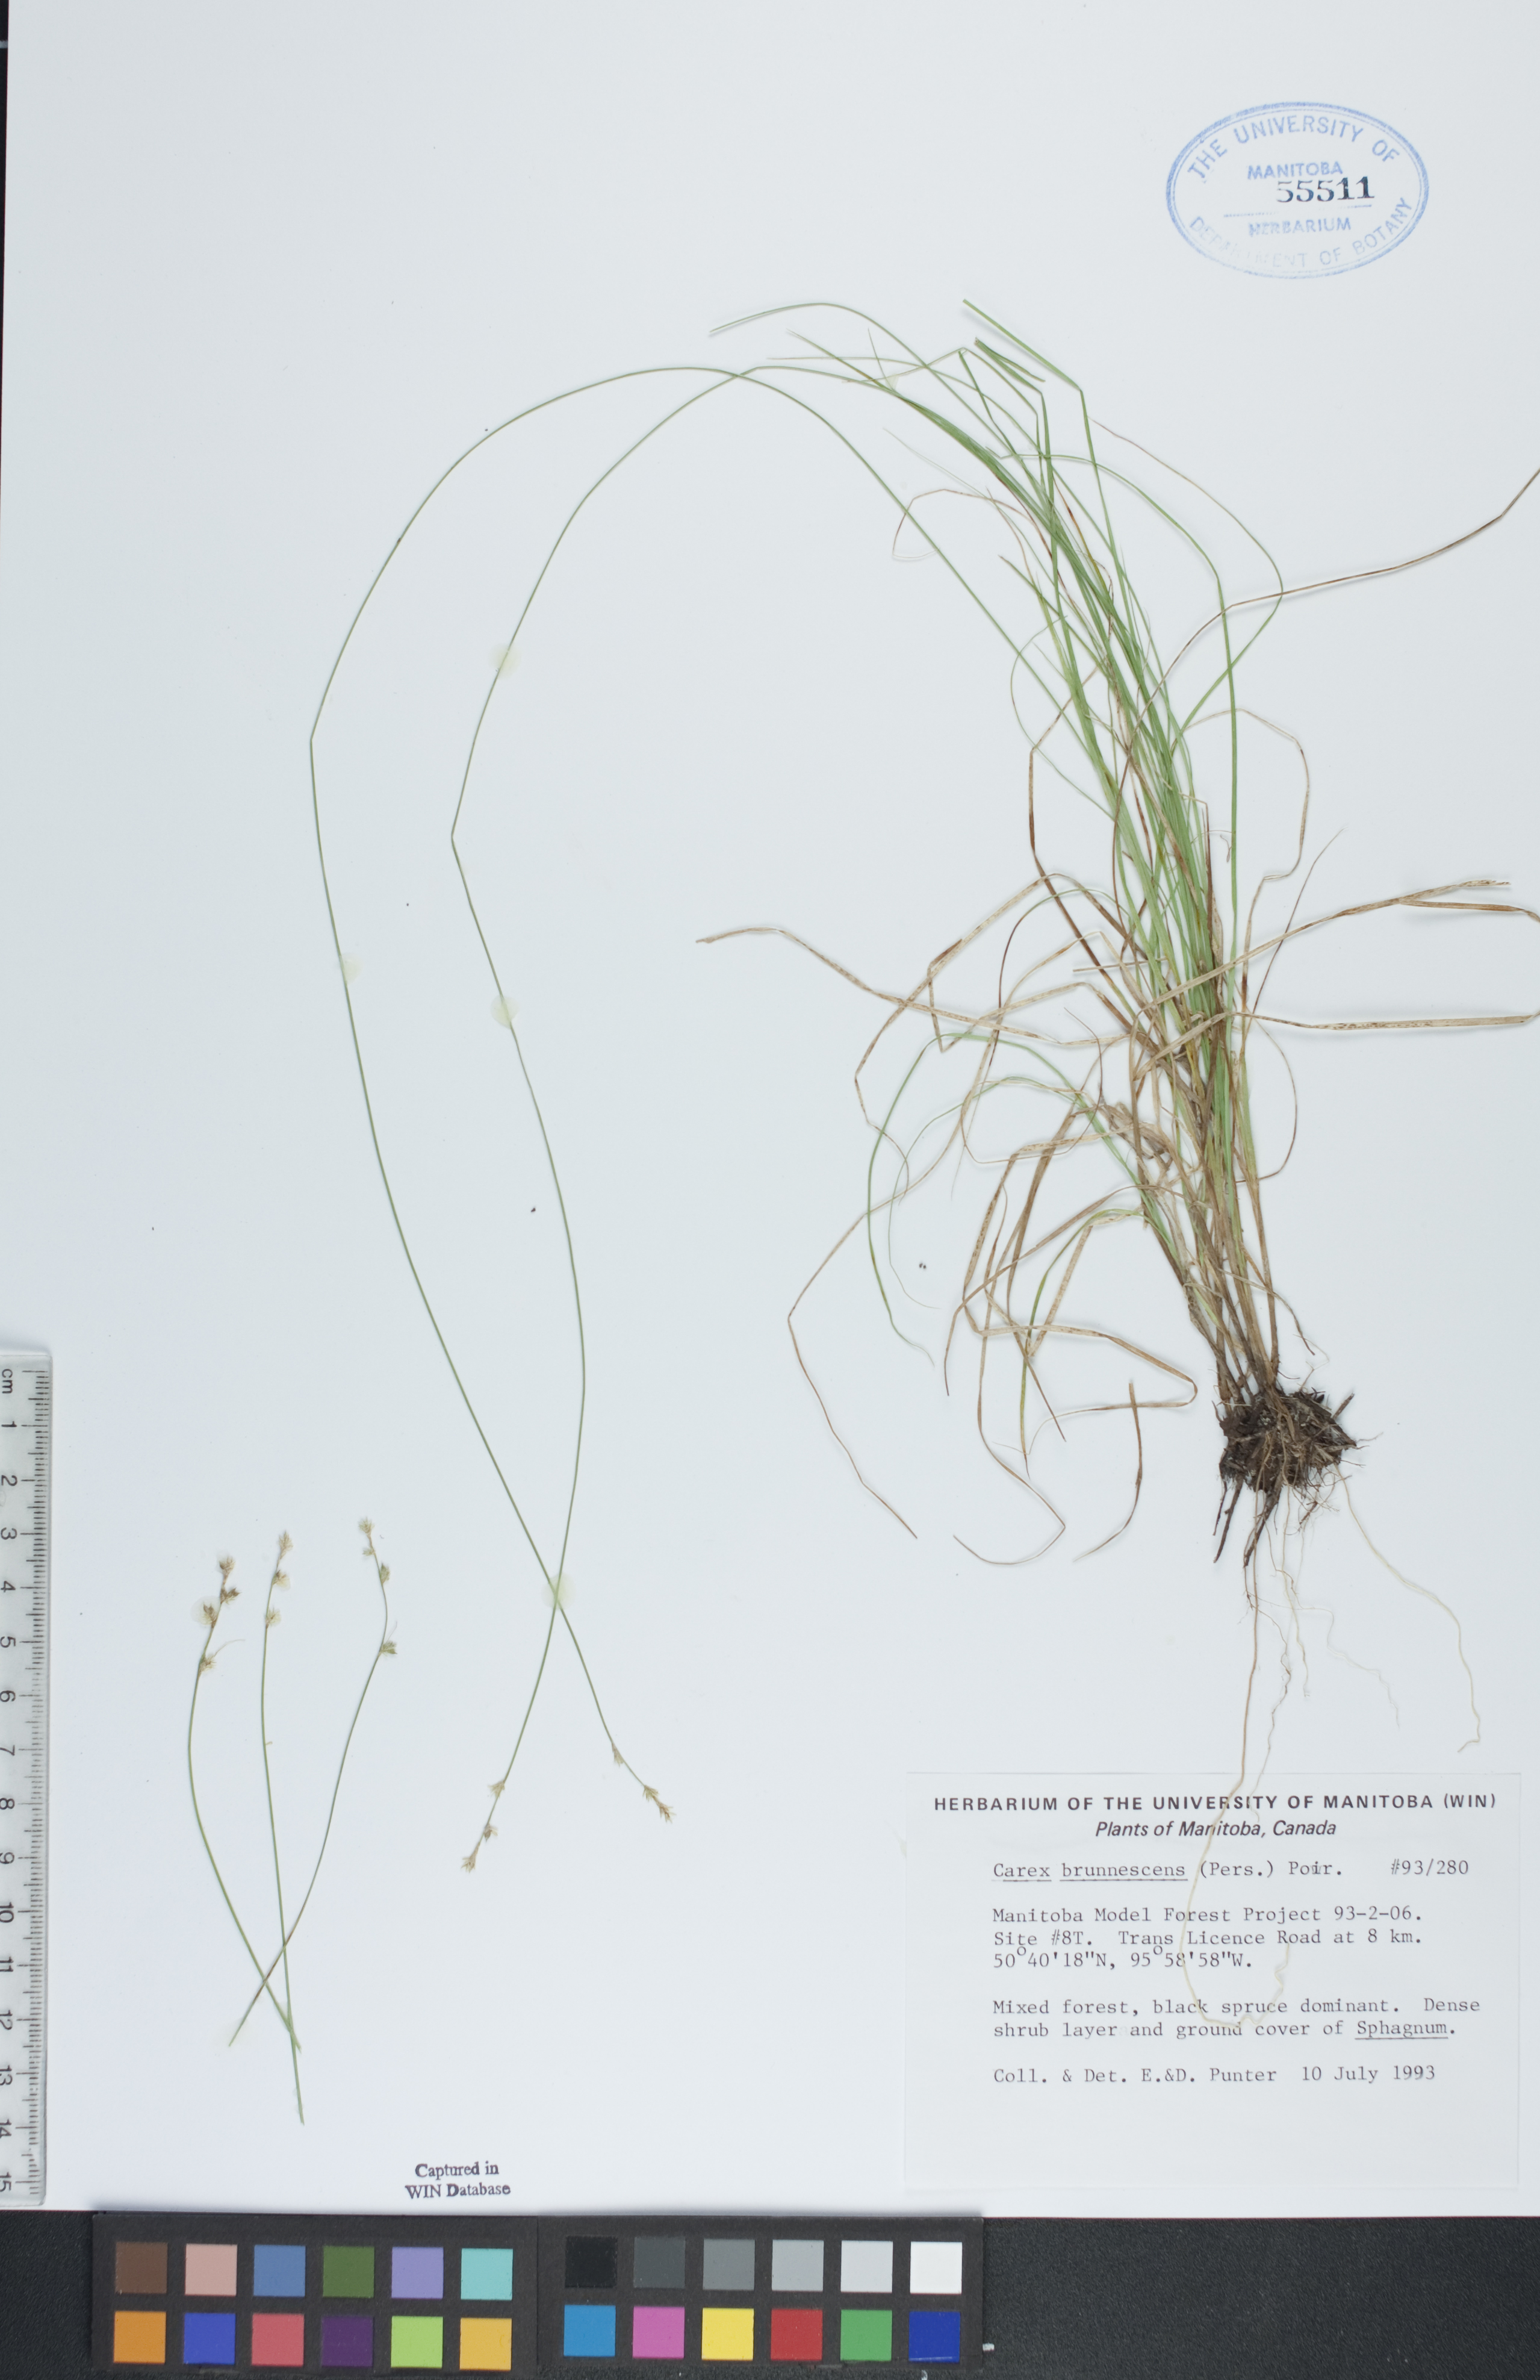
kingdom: Plantae
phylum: Tracheophyta
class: Liliopsida
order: Poales
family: Cyperaceae
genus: Carex
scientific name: Carex brunnescens
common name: Brown sedge
